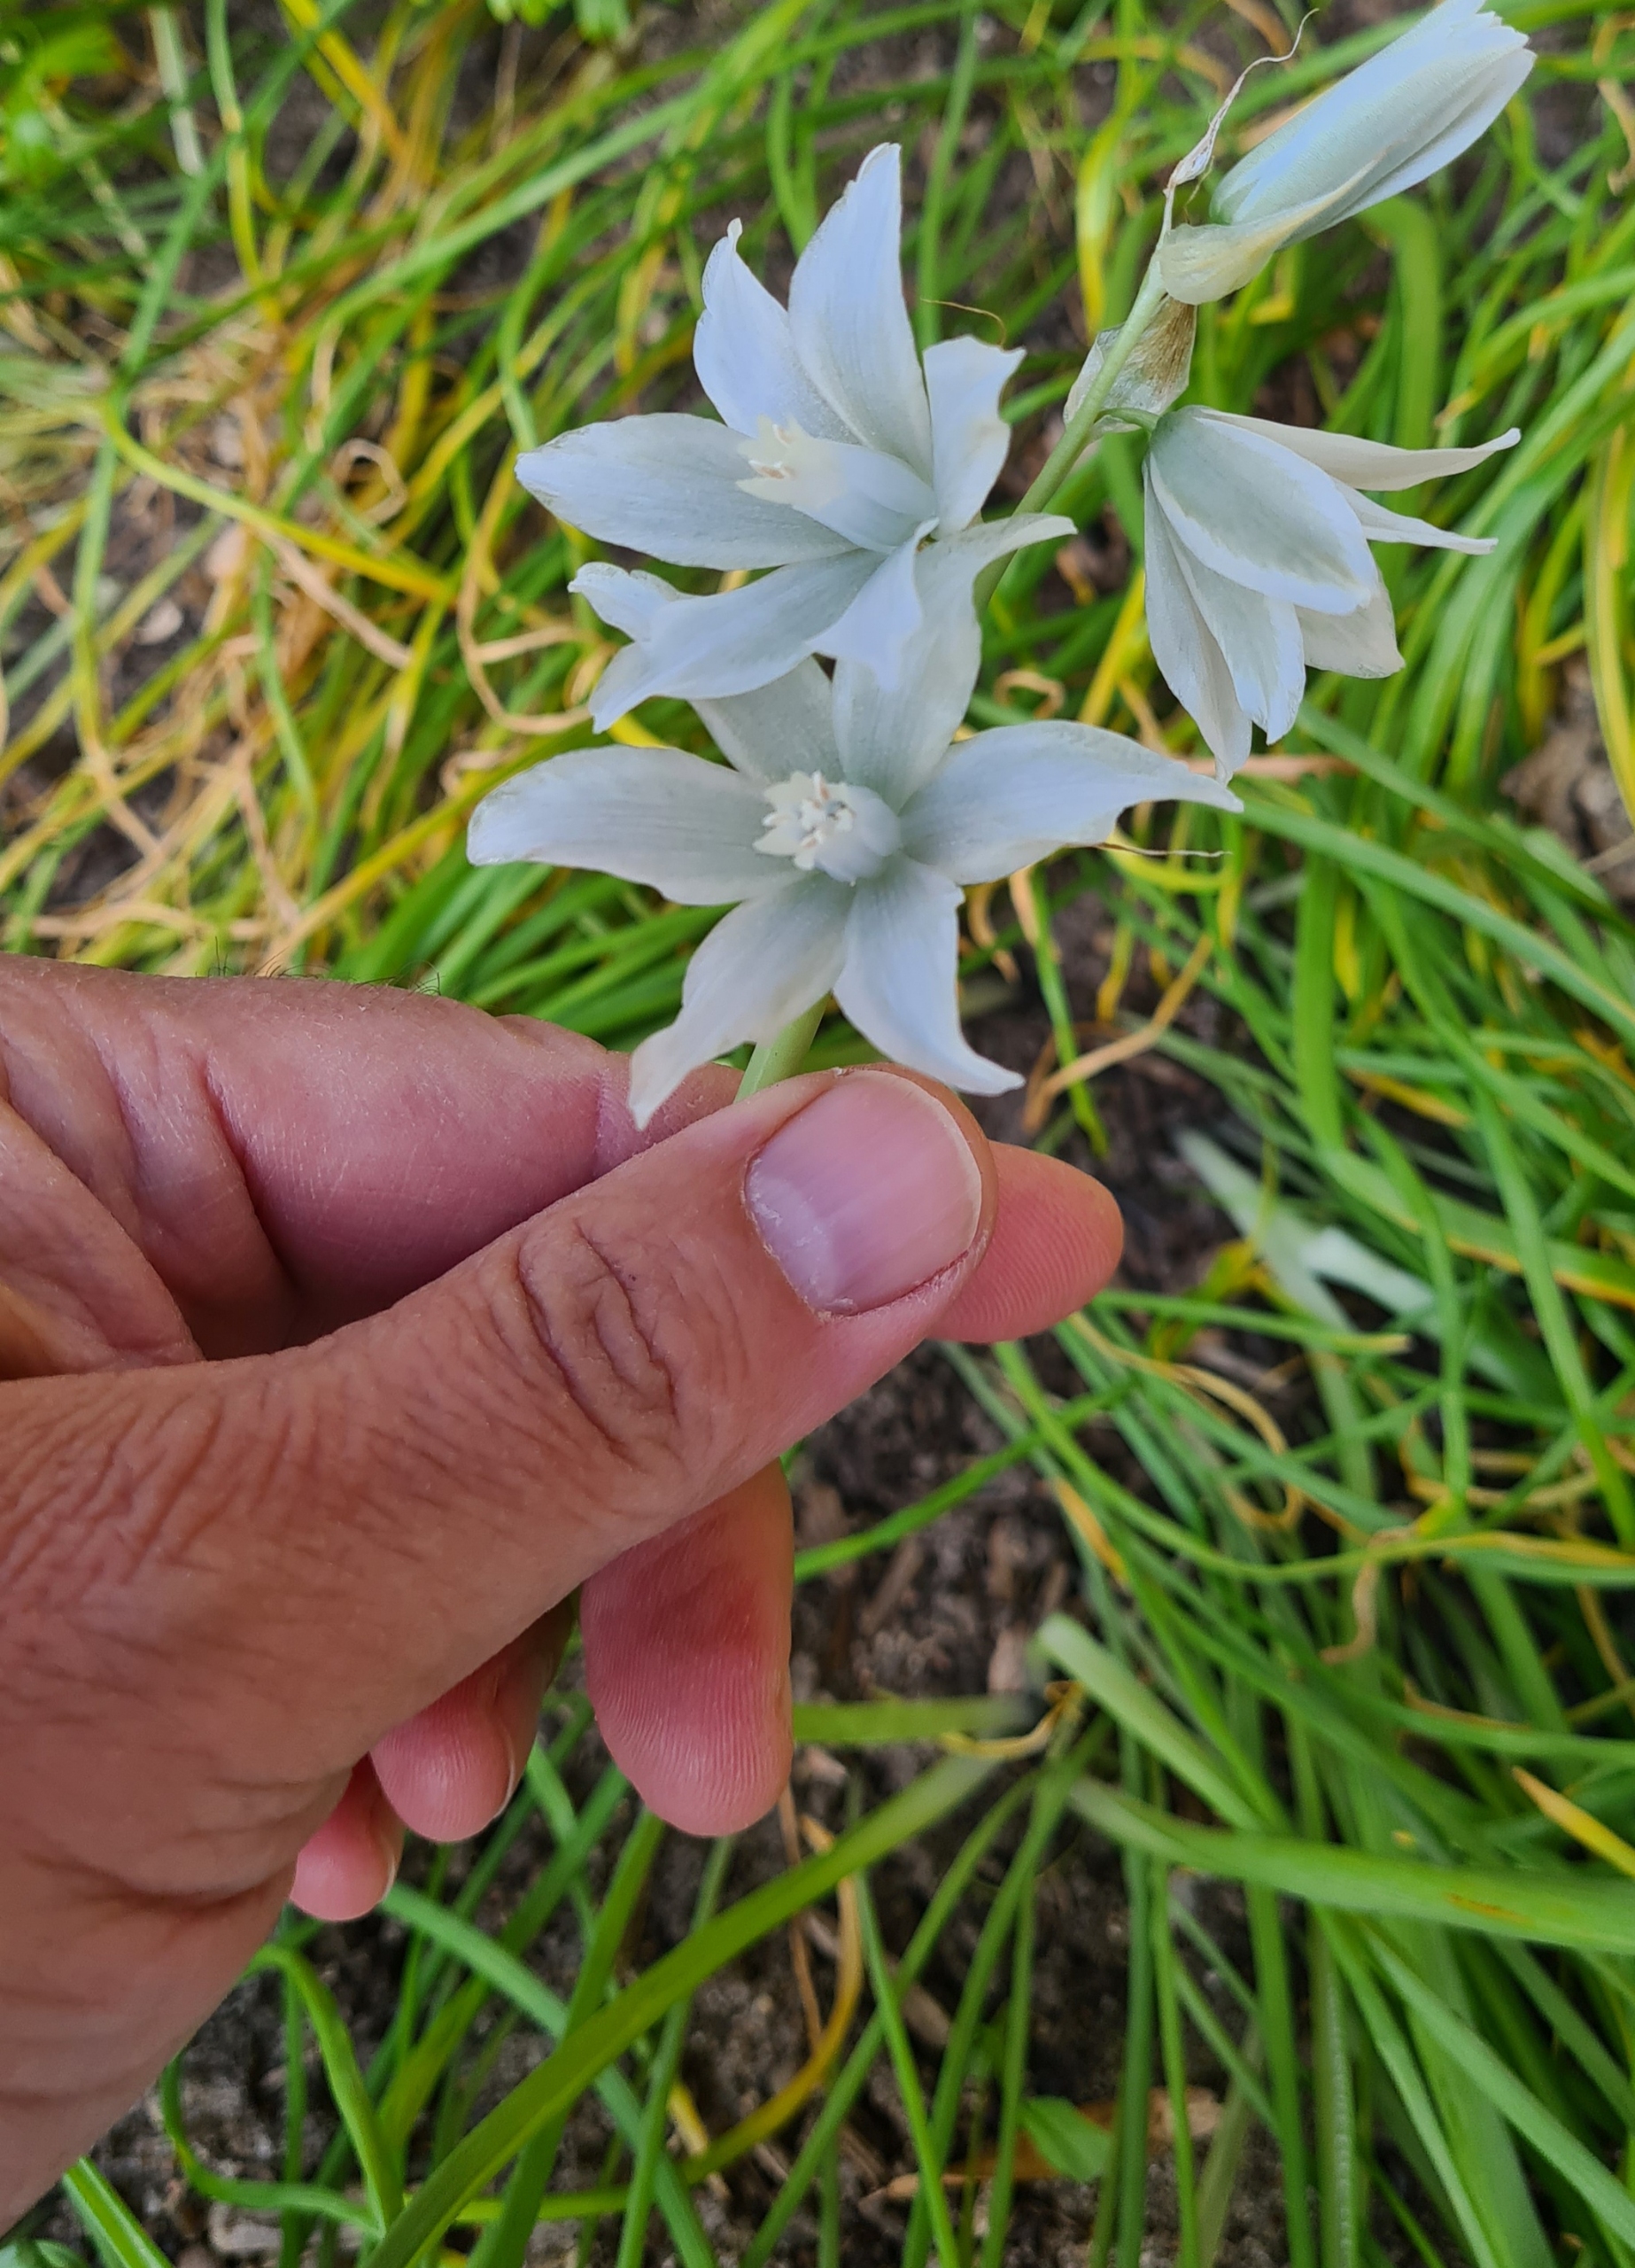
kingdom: Plantae
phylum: Tracheophyta
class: Liliopsida
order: Asparagales
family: Asparagaceae
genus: Ornithogalum
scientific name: Ornithogalum nutans
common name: Nikkende fuglemælk
